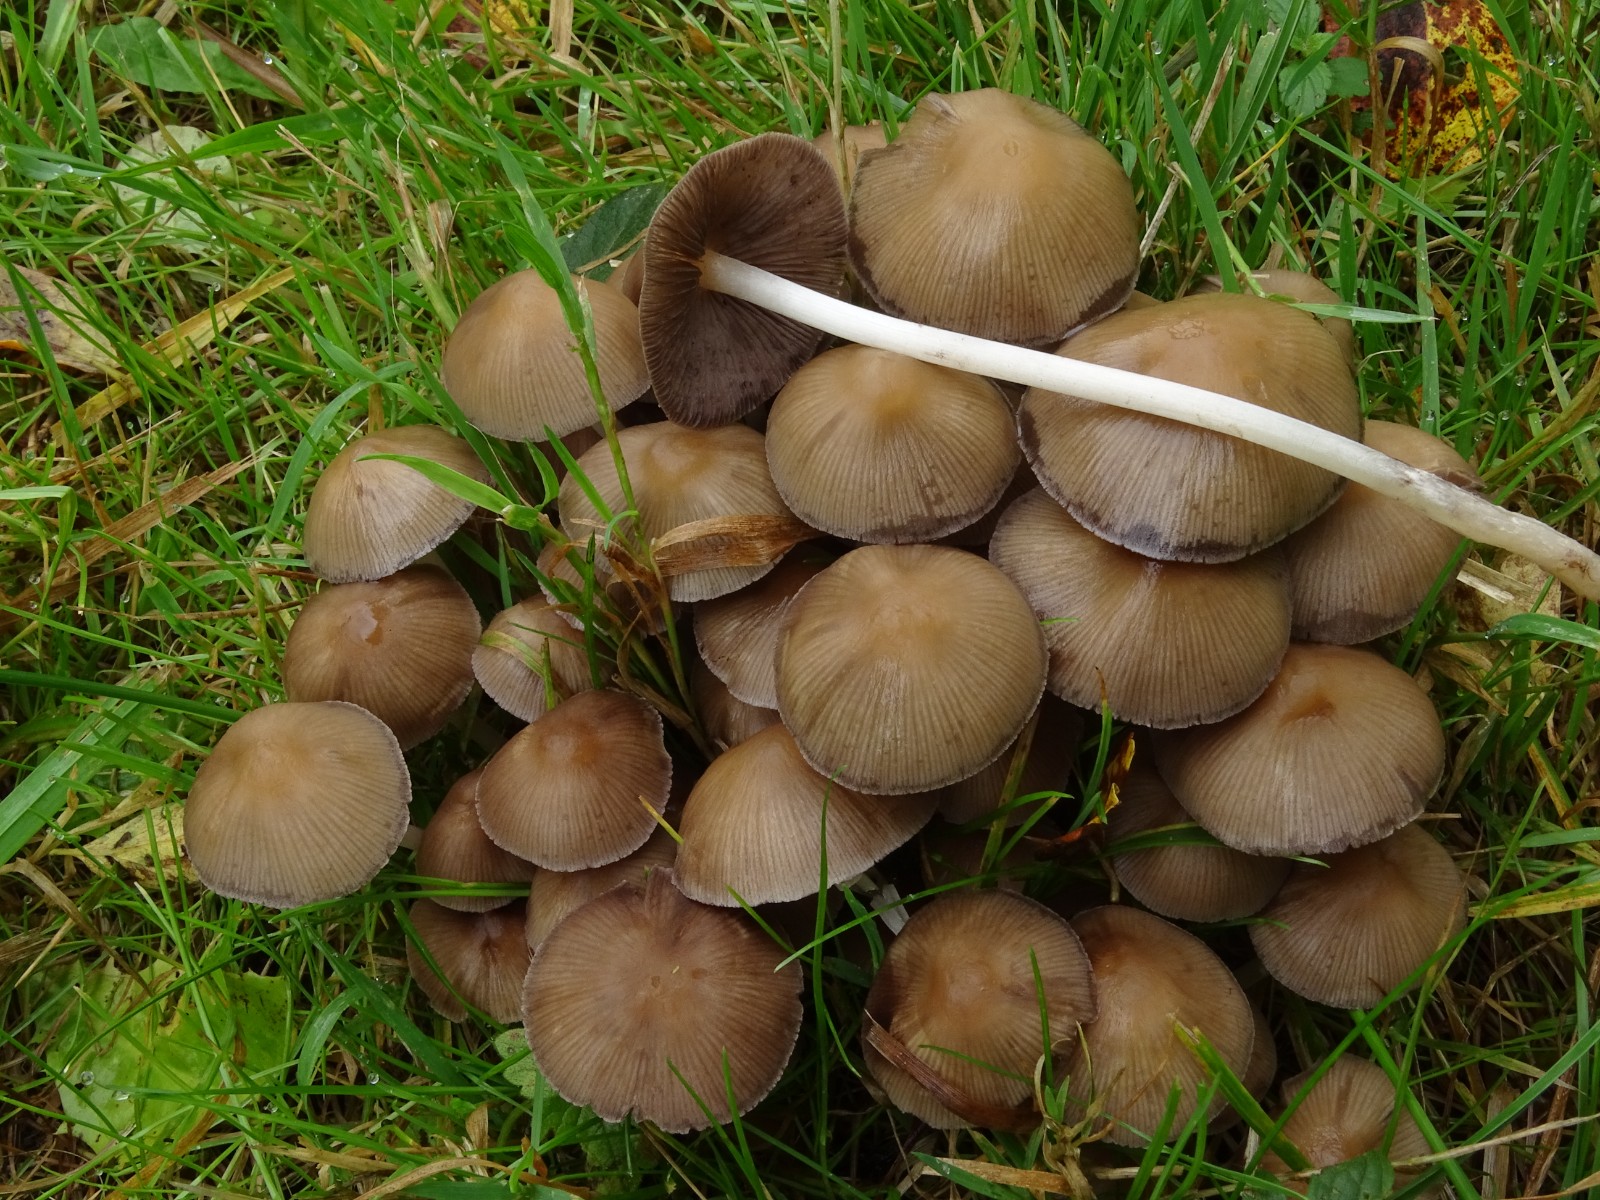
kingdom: Fungi
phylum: Basidiomycota
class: Agaricomycetes
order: Agaricales
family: Psathyrellaceae
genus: Britzelmayria
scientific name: Britzelmayria multipedata
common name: knippe-mørkhat
